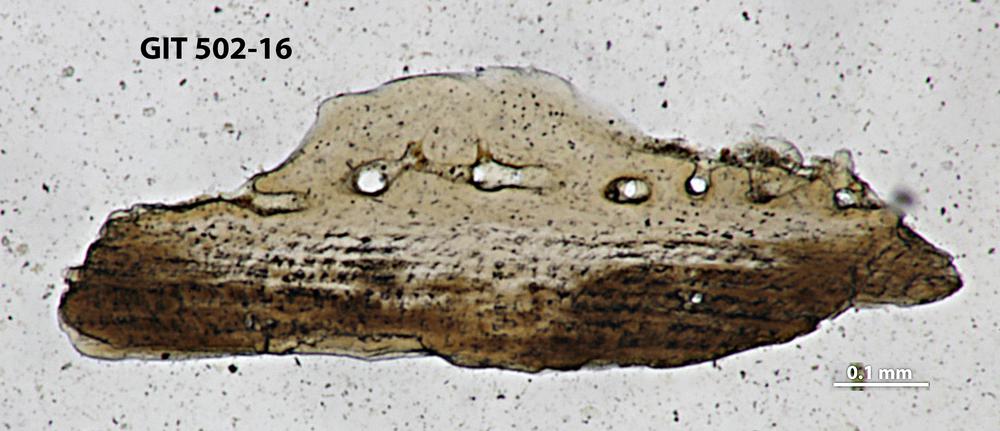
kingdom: Animalia
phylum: Chordata
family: Dartmuthiidae
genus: Dartmuthia
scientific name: Dartmuthia
